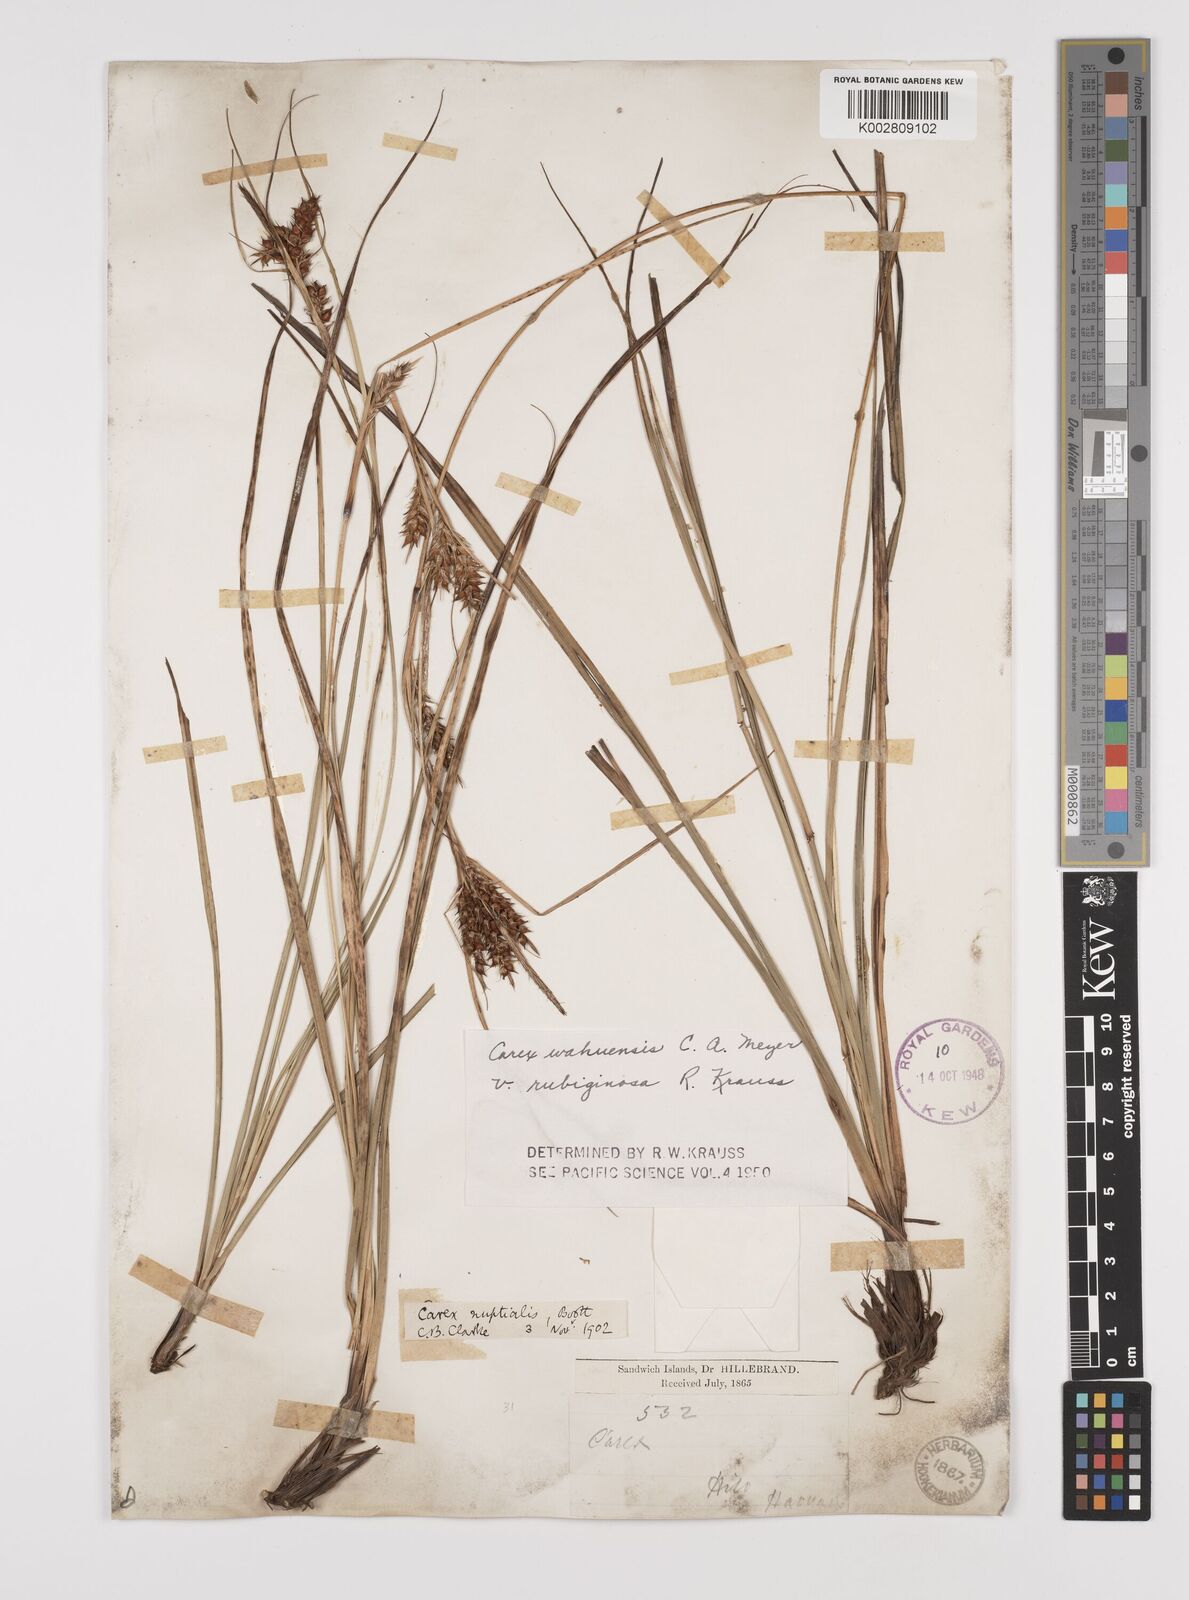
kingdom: Plantae
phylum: Tracheophyta
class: Liliopsida
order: Poales
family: Cyperaceae
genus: Carex
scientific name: Carex wahuensis
